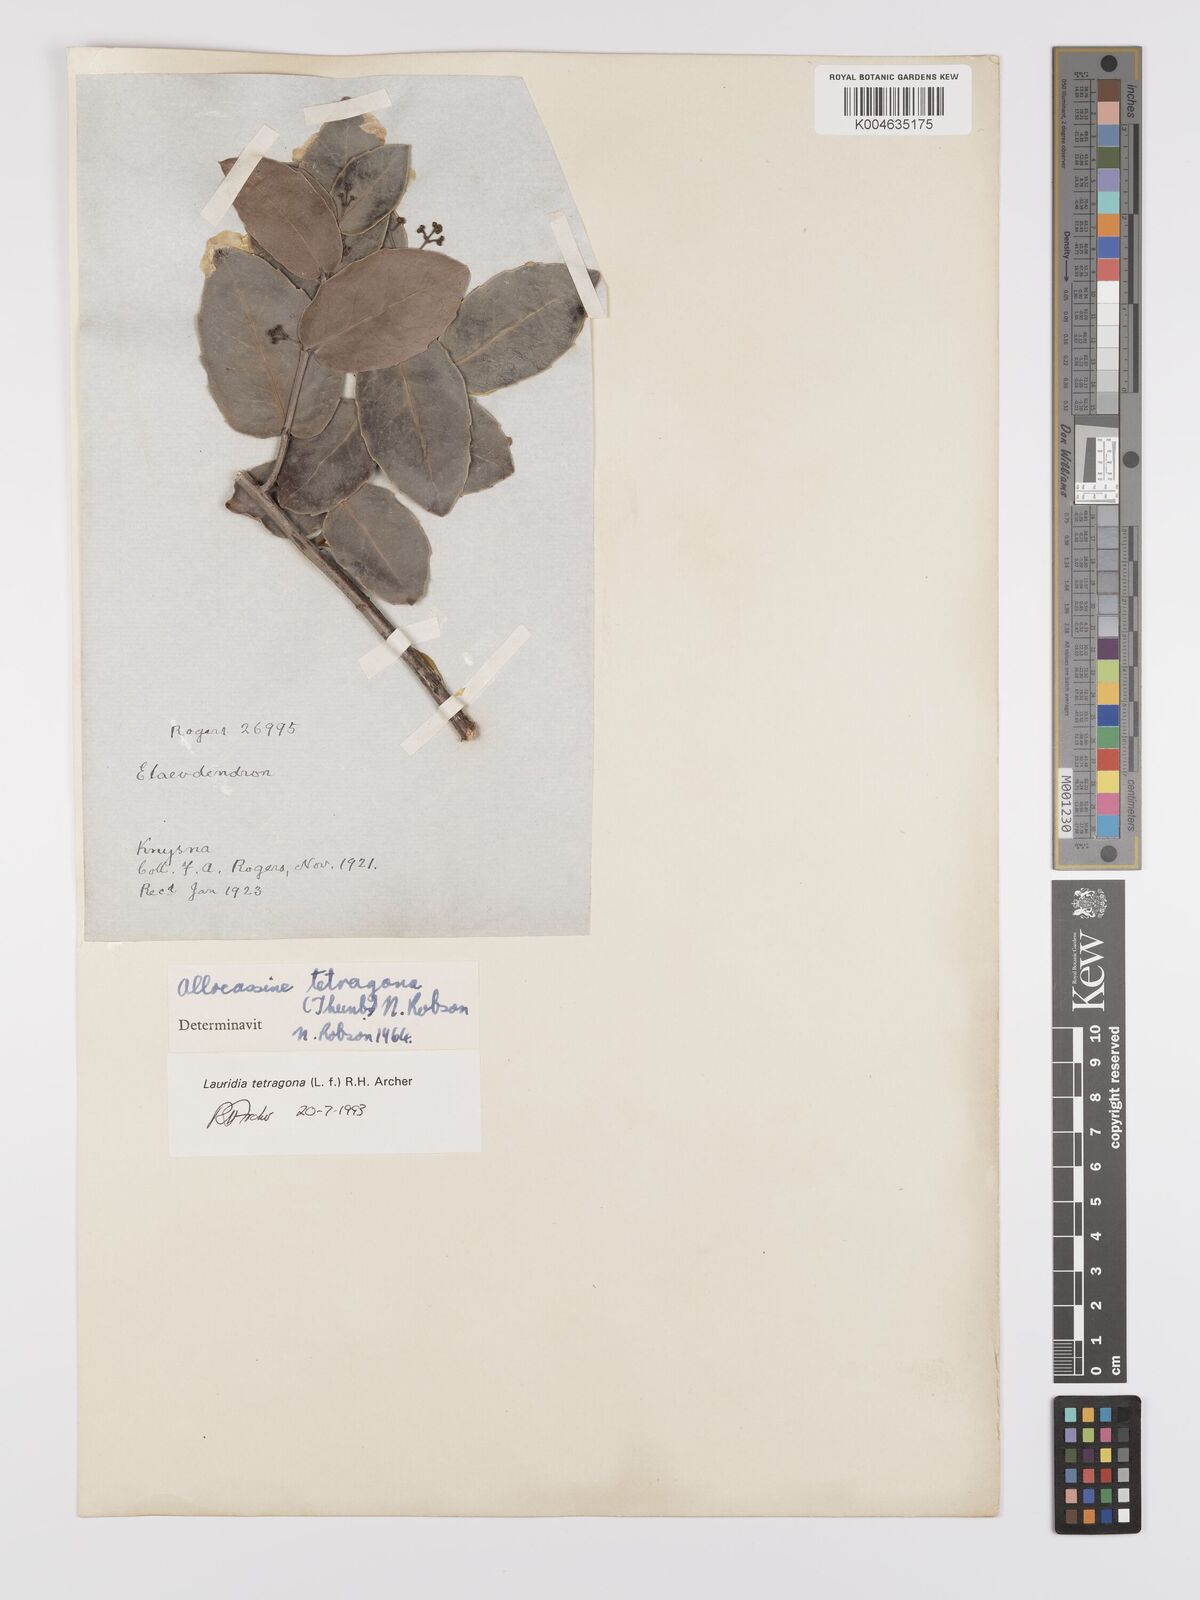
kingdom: Plantae
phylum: Tracheophyta
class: Magnoliopsida
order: Celastrales
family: Celastraceae
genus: Lauridia
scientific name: Lauridia tetragona
